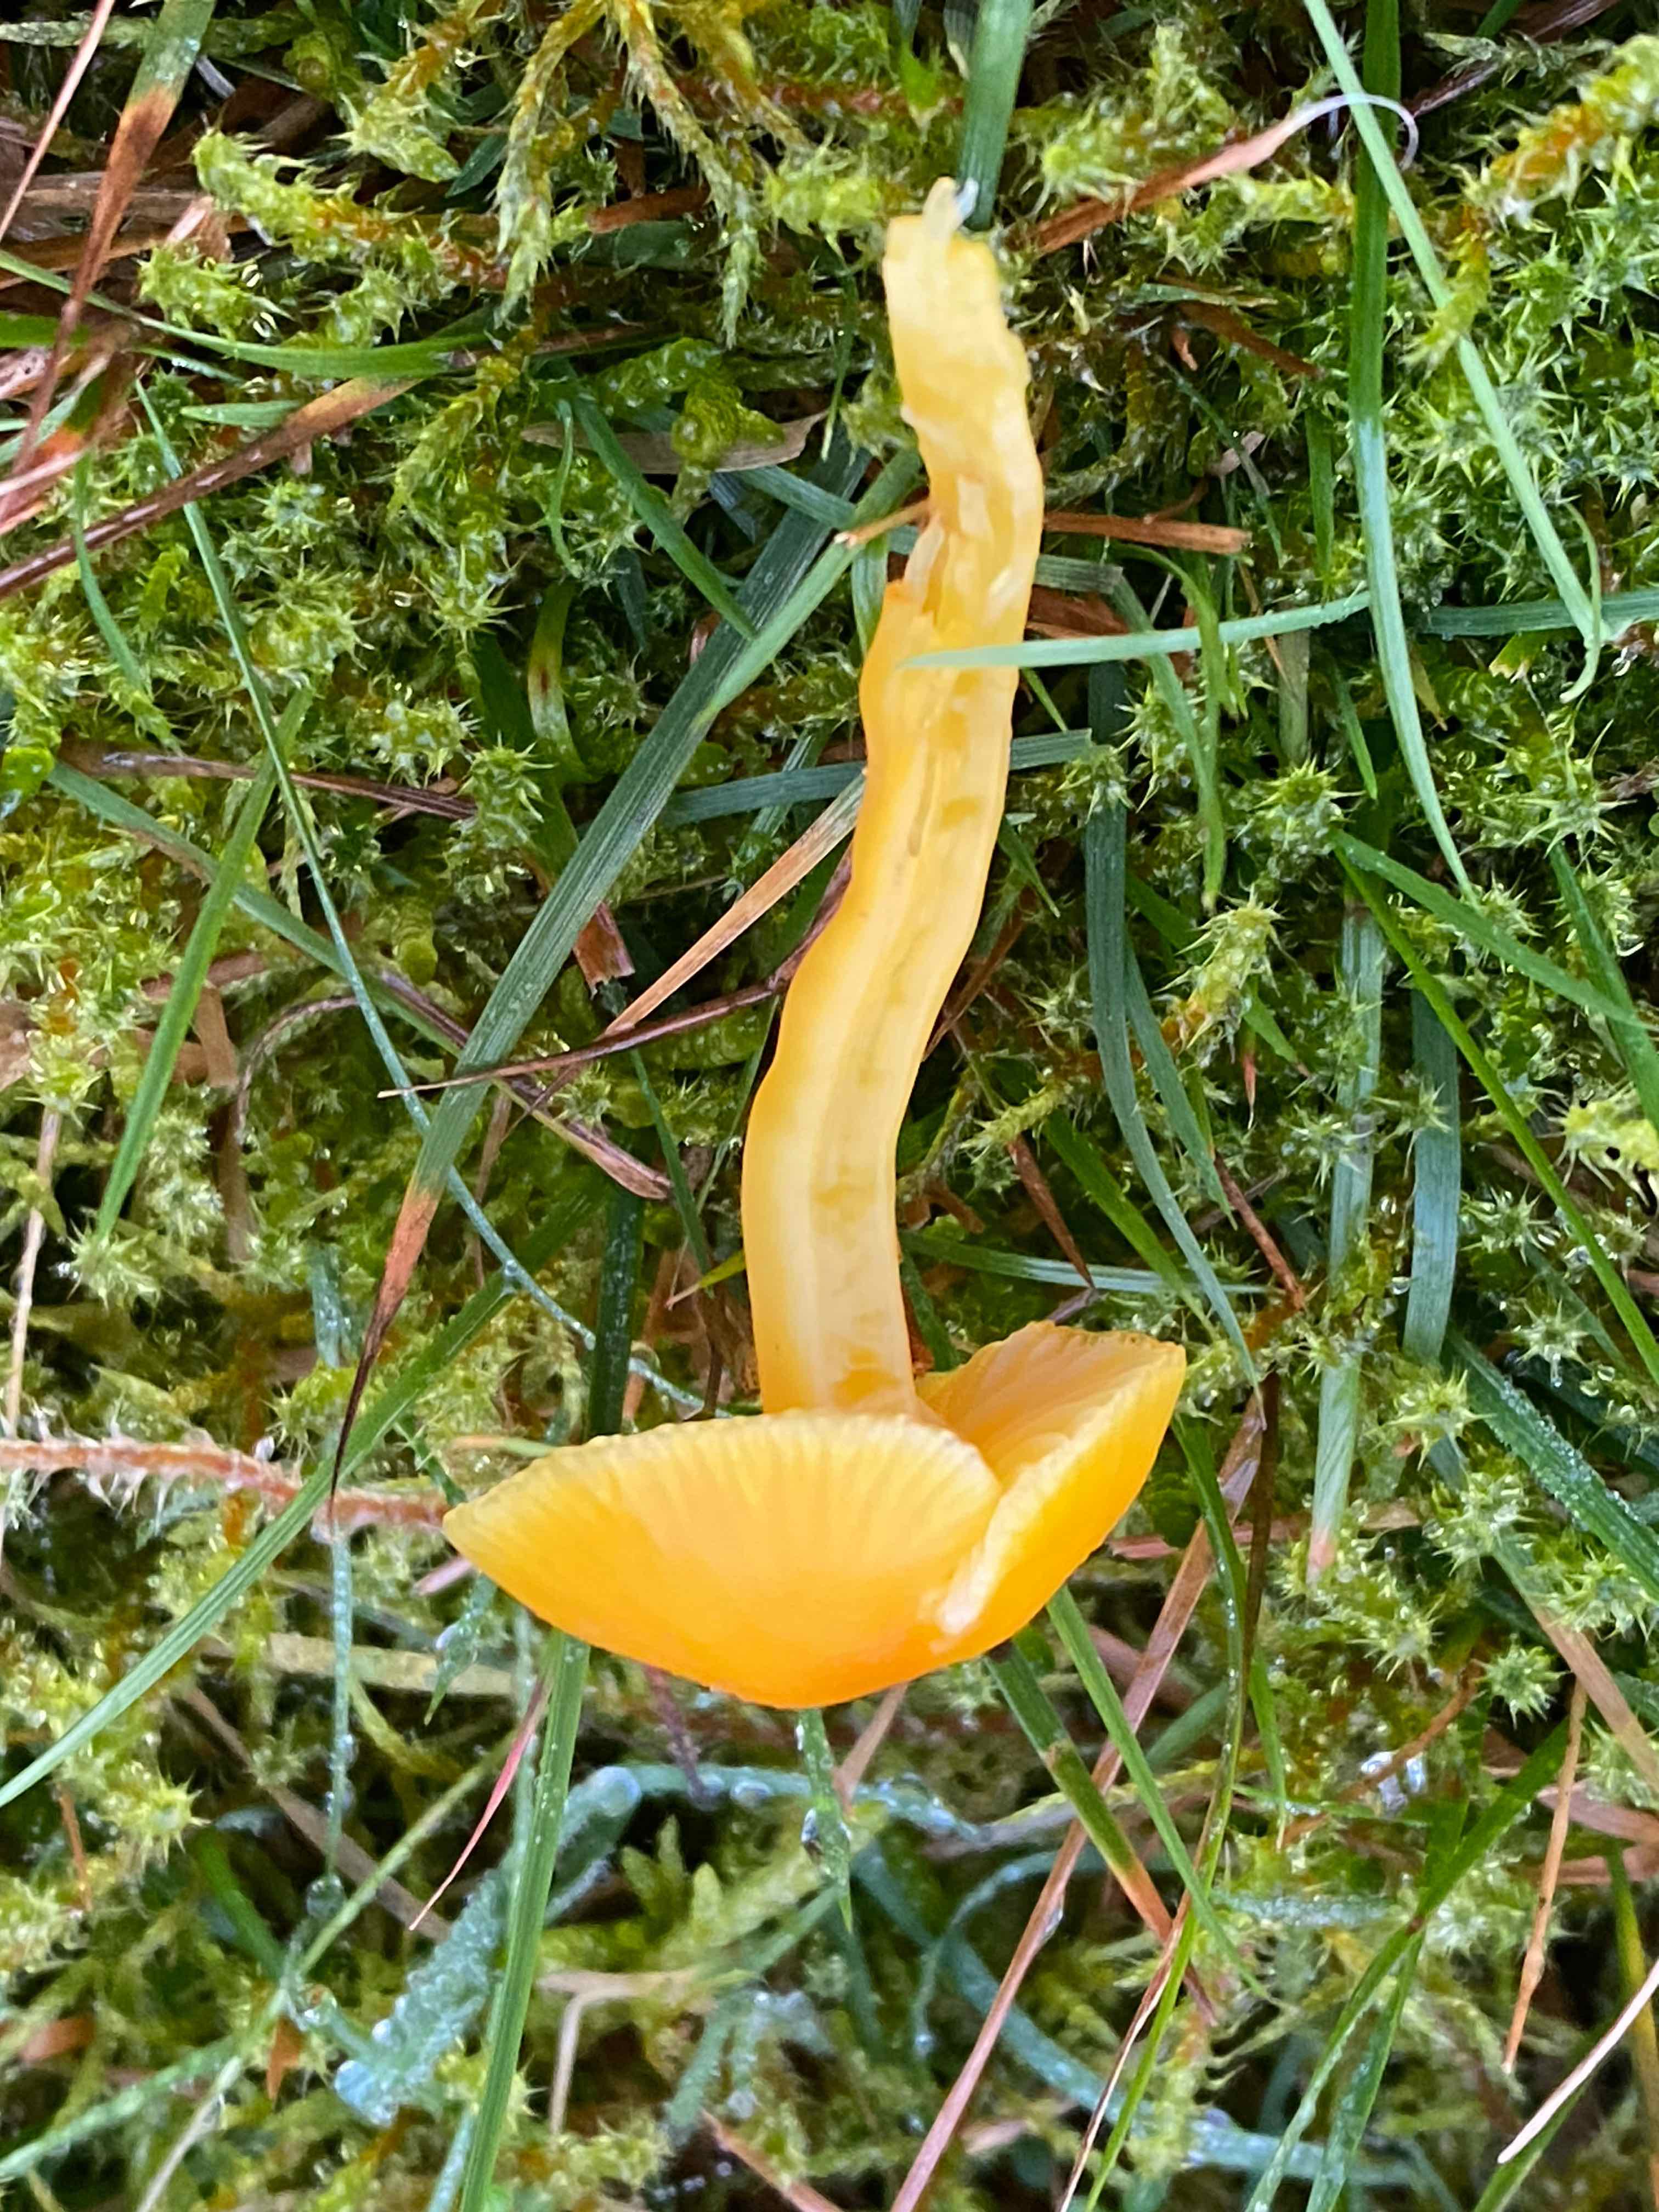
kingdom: Fungi
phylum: Basidiomycota
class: Agaricomycetes
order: Agaricales
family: Hygrophoraceae
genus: Hygrocybe
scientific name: Hygrocybe ceracea
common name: voksgul vokshat
